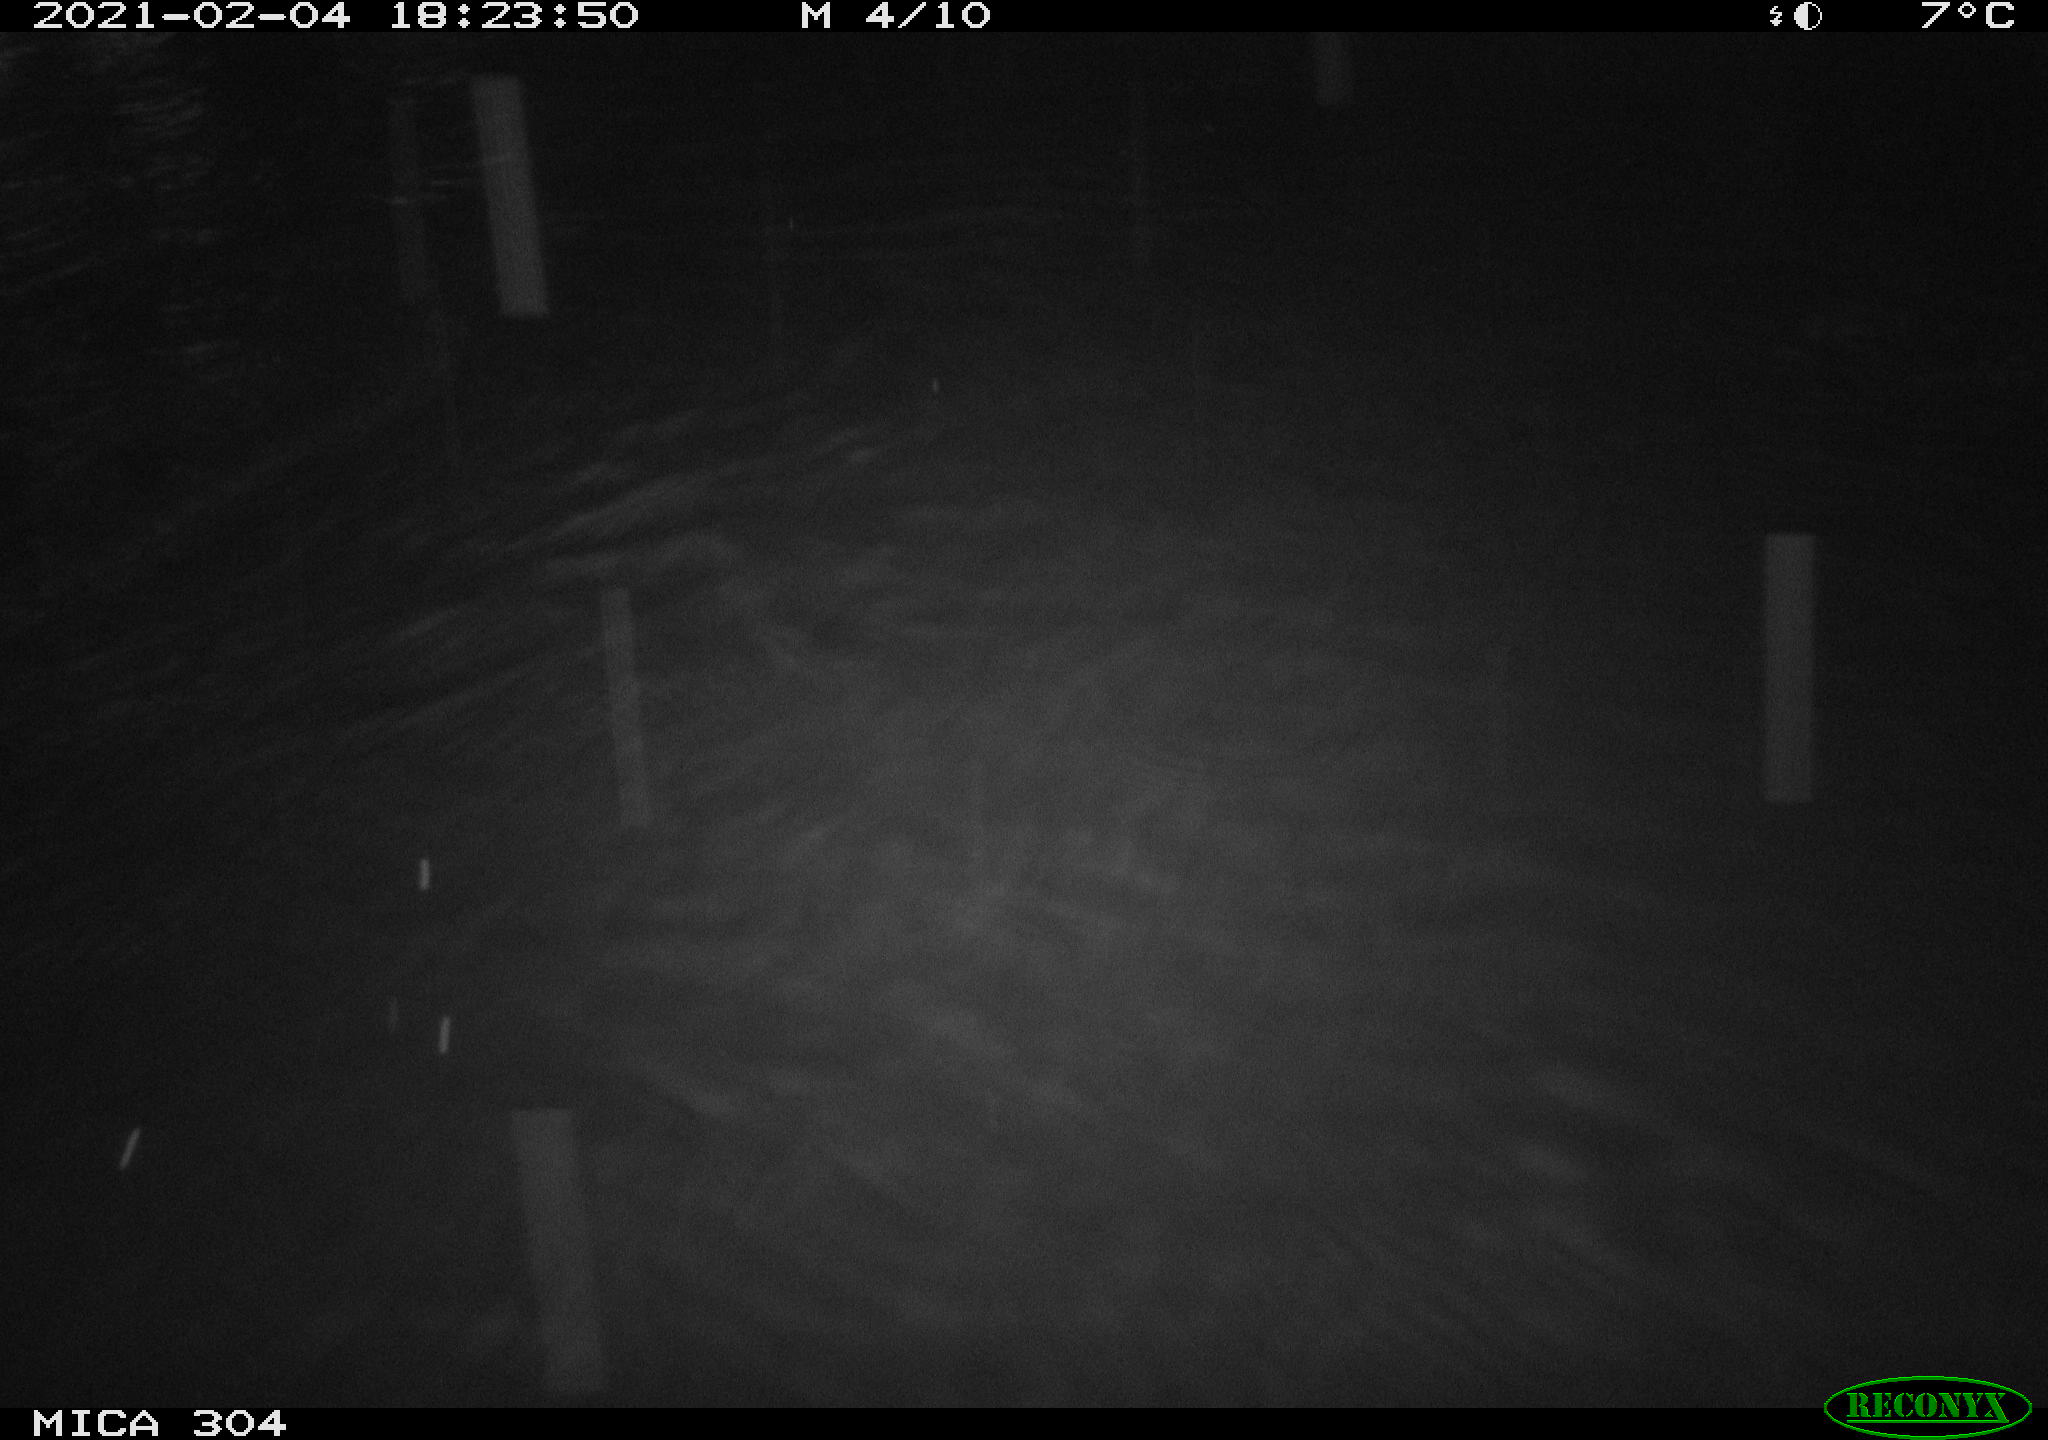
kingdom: Animalia
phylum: Chordata
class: Mammalia
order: Rodentia
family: Muridae
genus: Rattus
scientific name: Rattus norvegicus
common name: Brown rat
